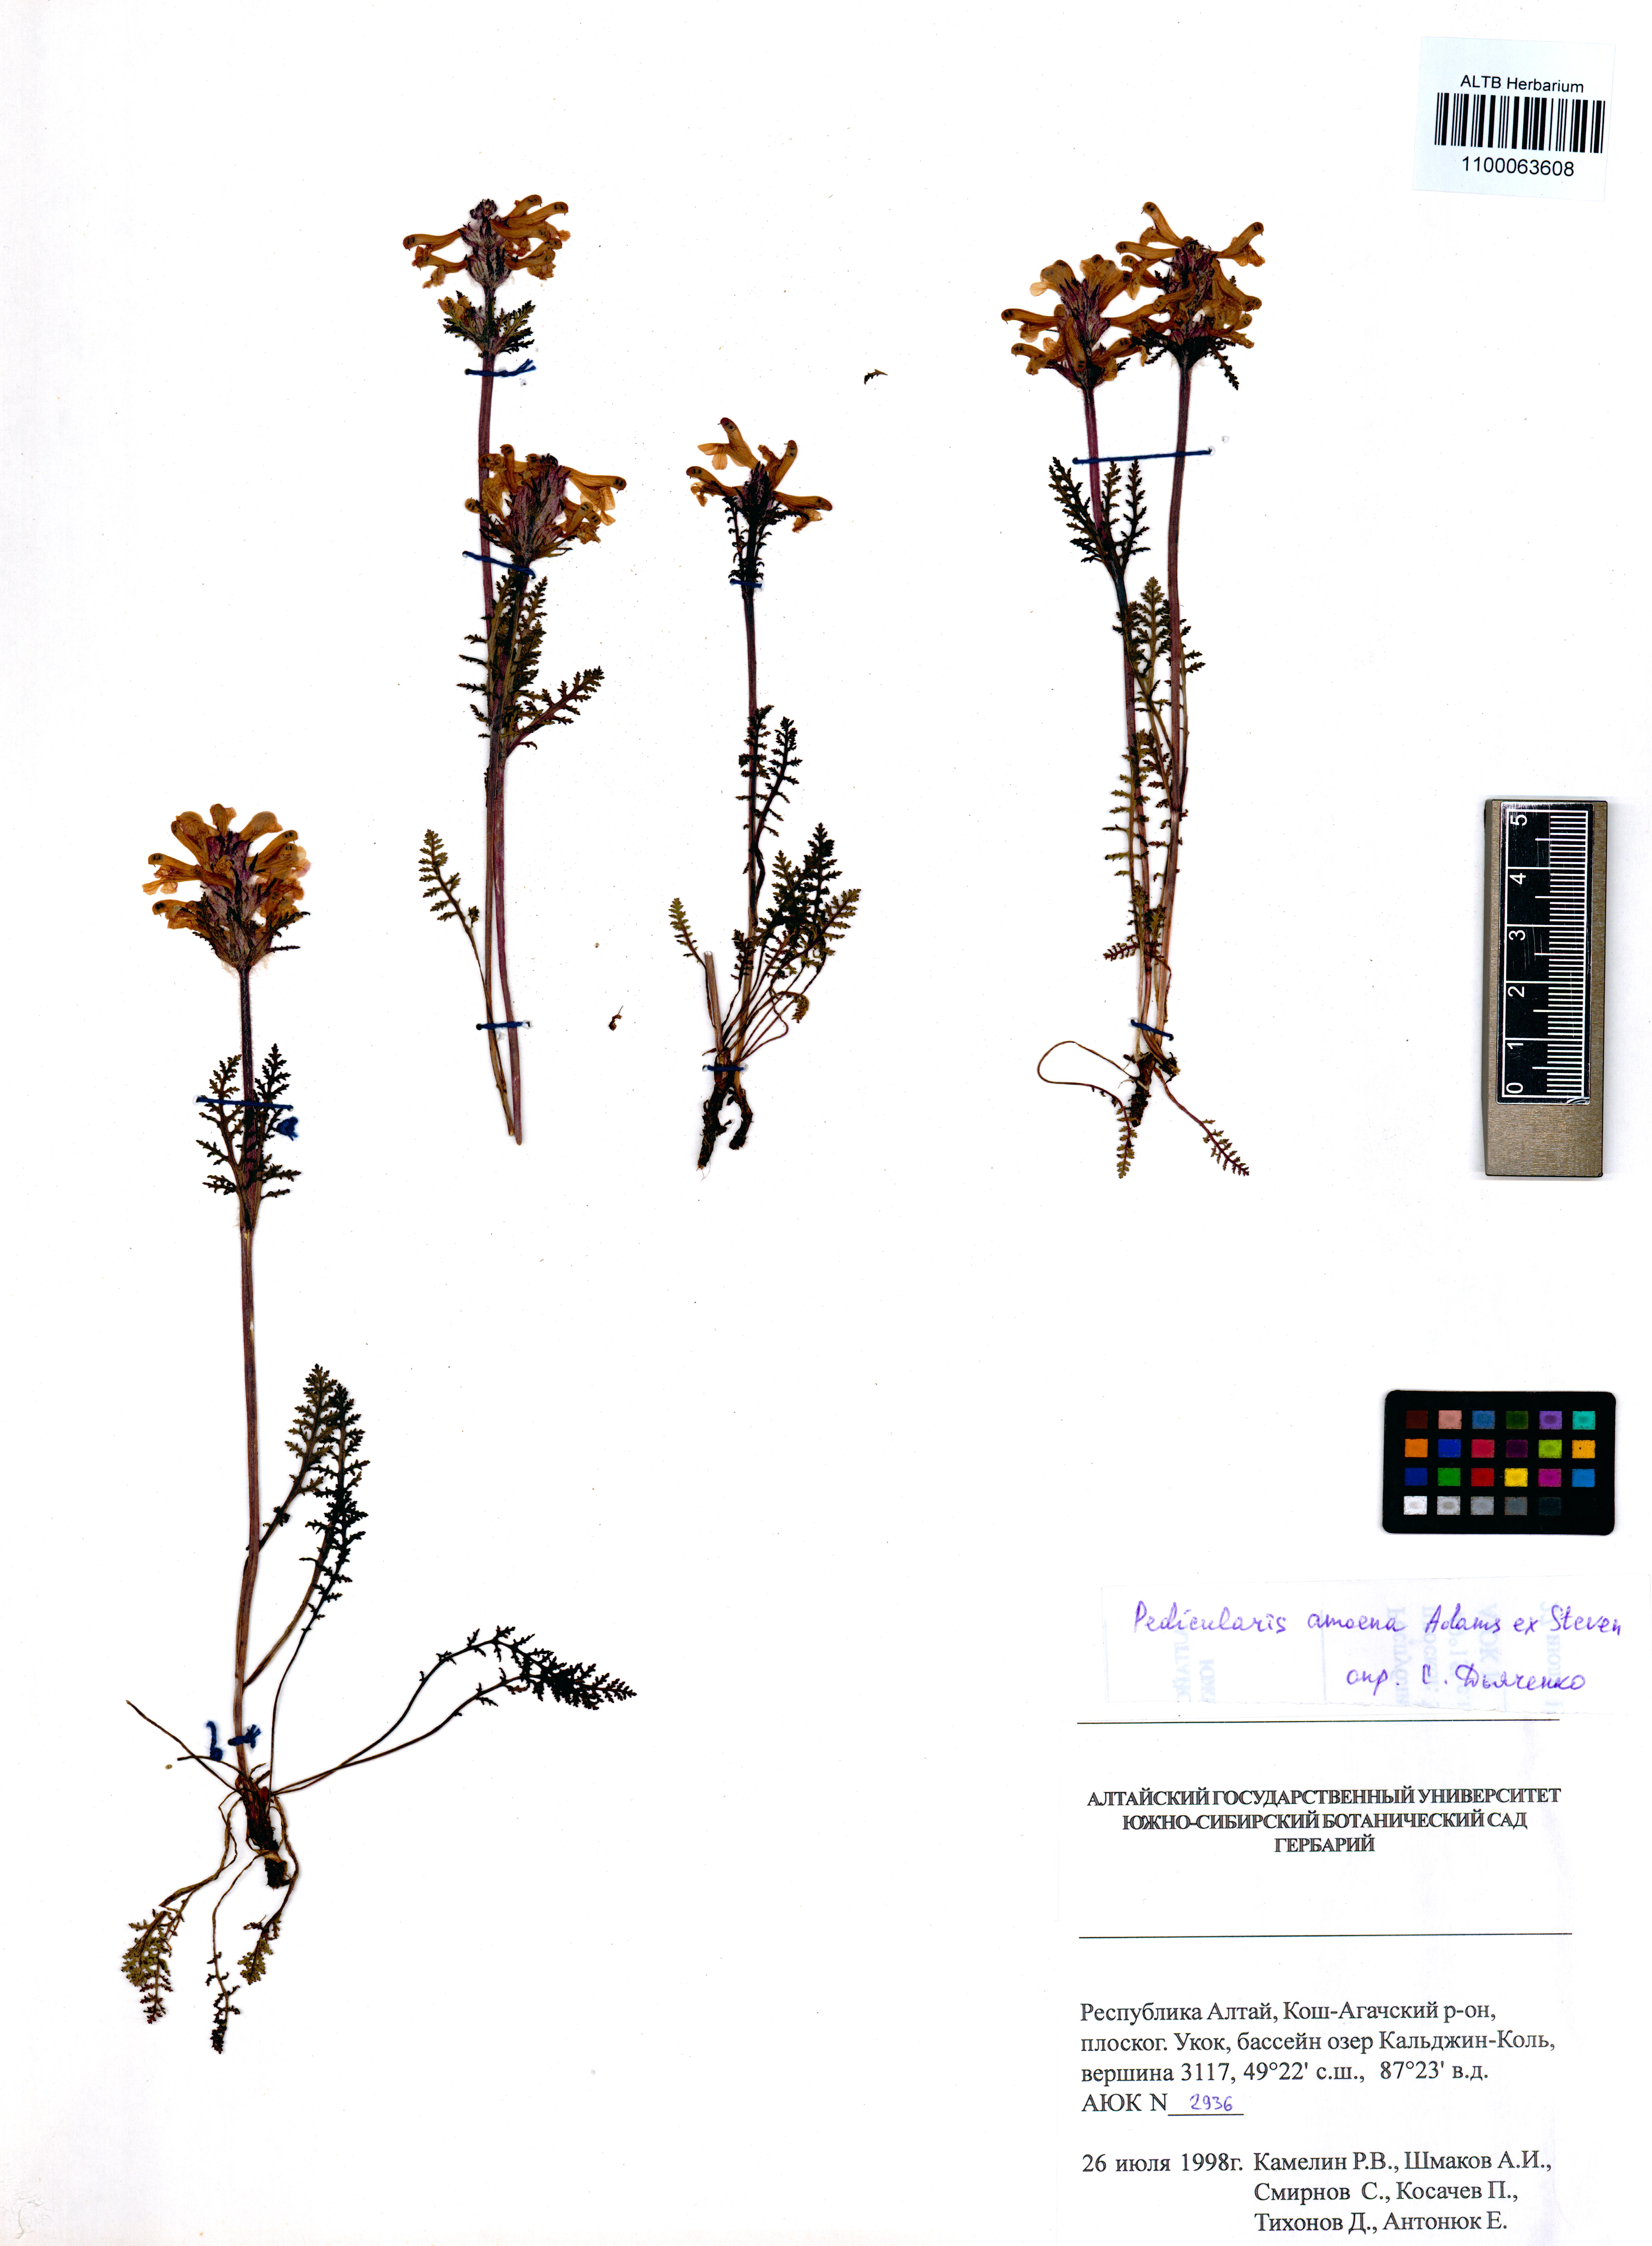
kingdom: Plantae
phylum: Tracheophyta
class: Magnoliopsida
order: Lamiales
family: Orobanchaceae
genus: Pedicularis
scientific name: Pedicularis amoena
